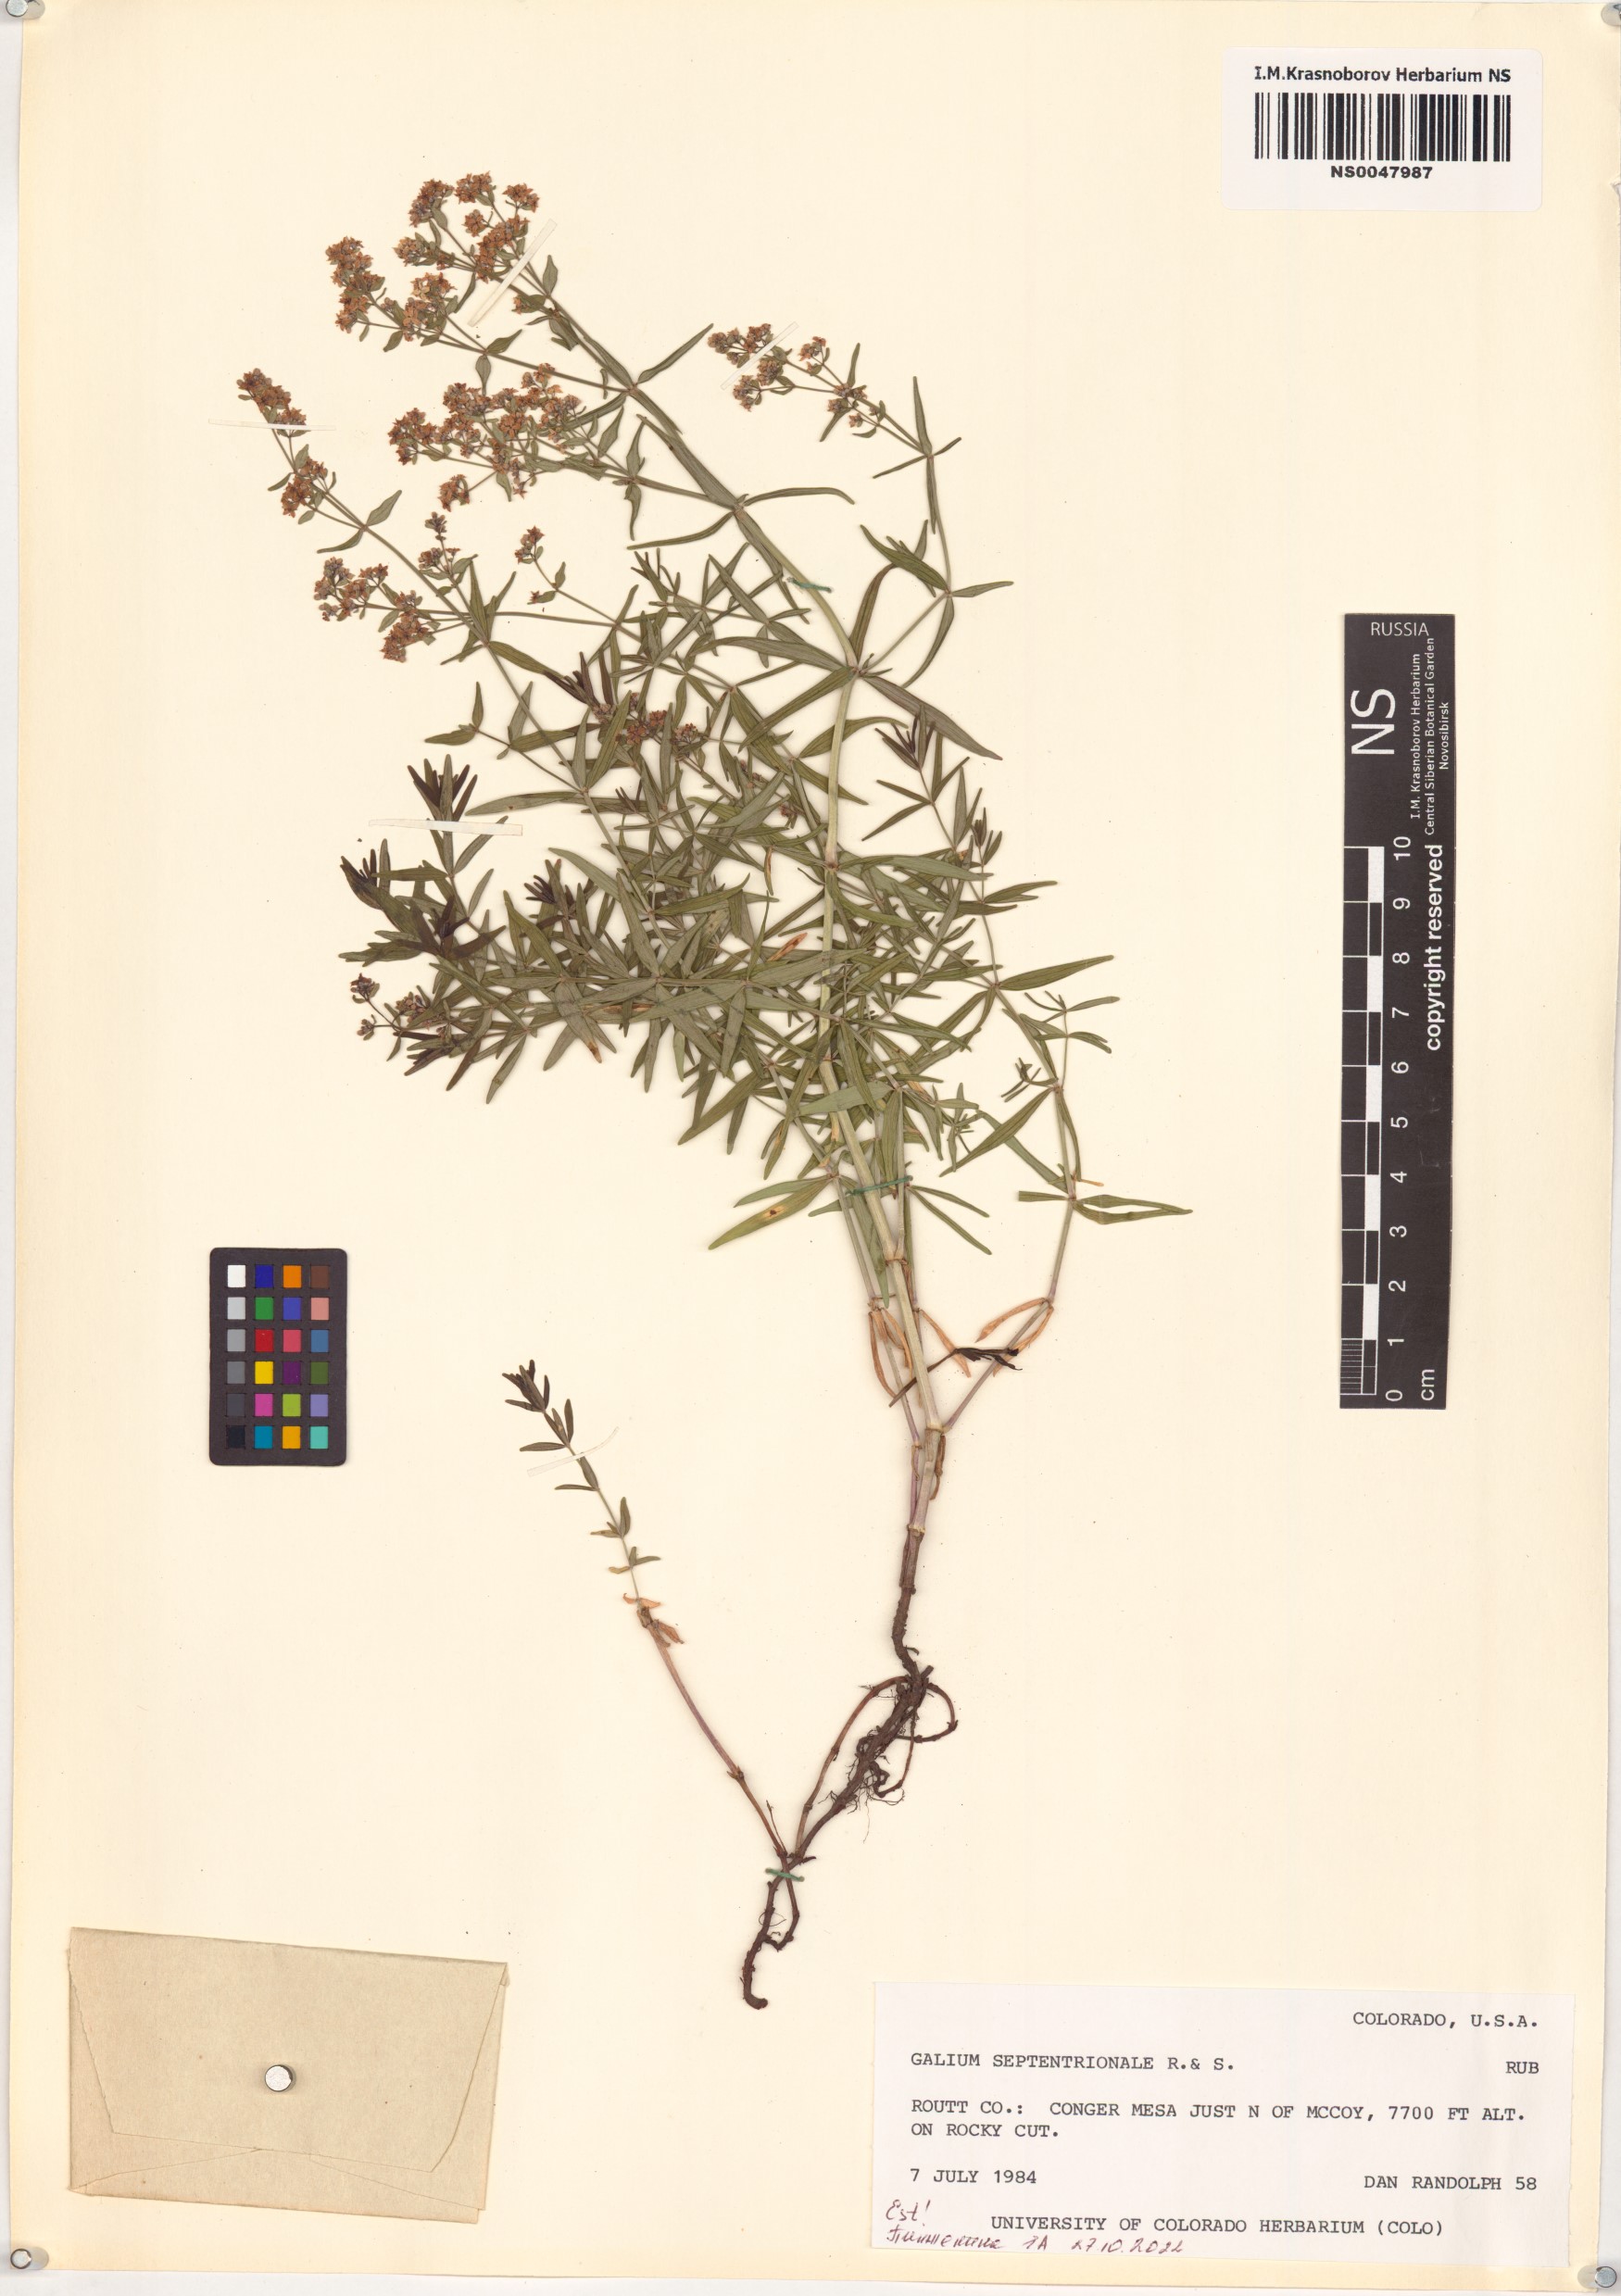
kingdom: Plantae
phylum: Tracheophyta
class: Magnoliopsida
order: Gentianales
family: Rubiaceae
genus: Galium
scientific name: Galium boreale
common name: Northern bedstraw
